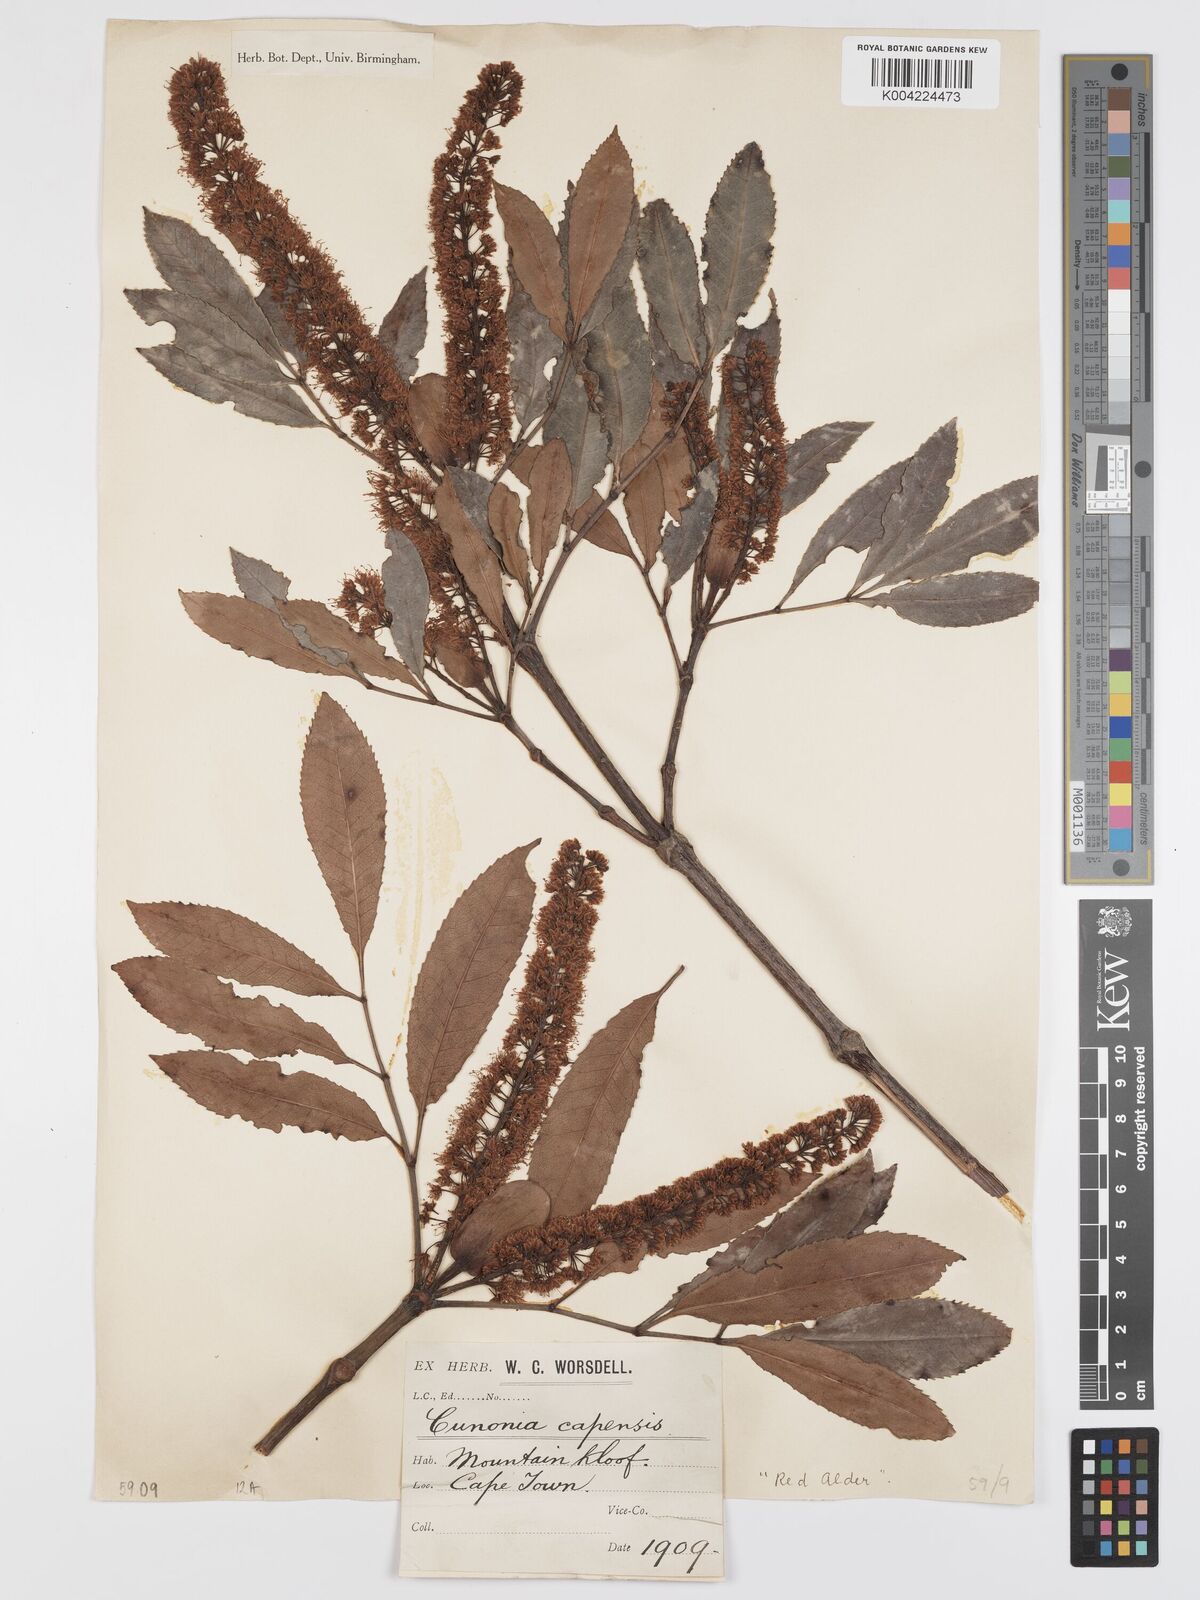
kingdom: Plantae
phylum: Tracheophyta
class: Magnoliopsida
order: Oxalidales
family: Cunoniaceae
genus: Cunonia
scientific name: Cunonia capensis
